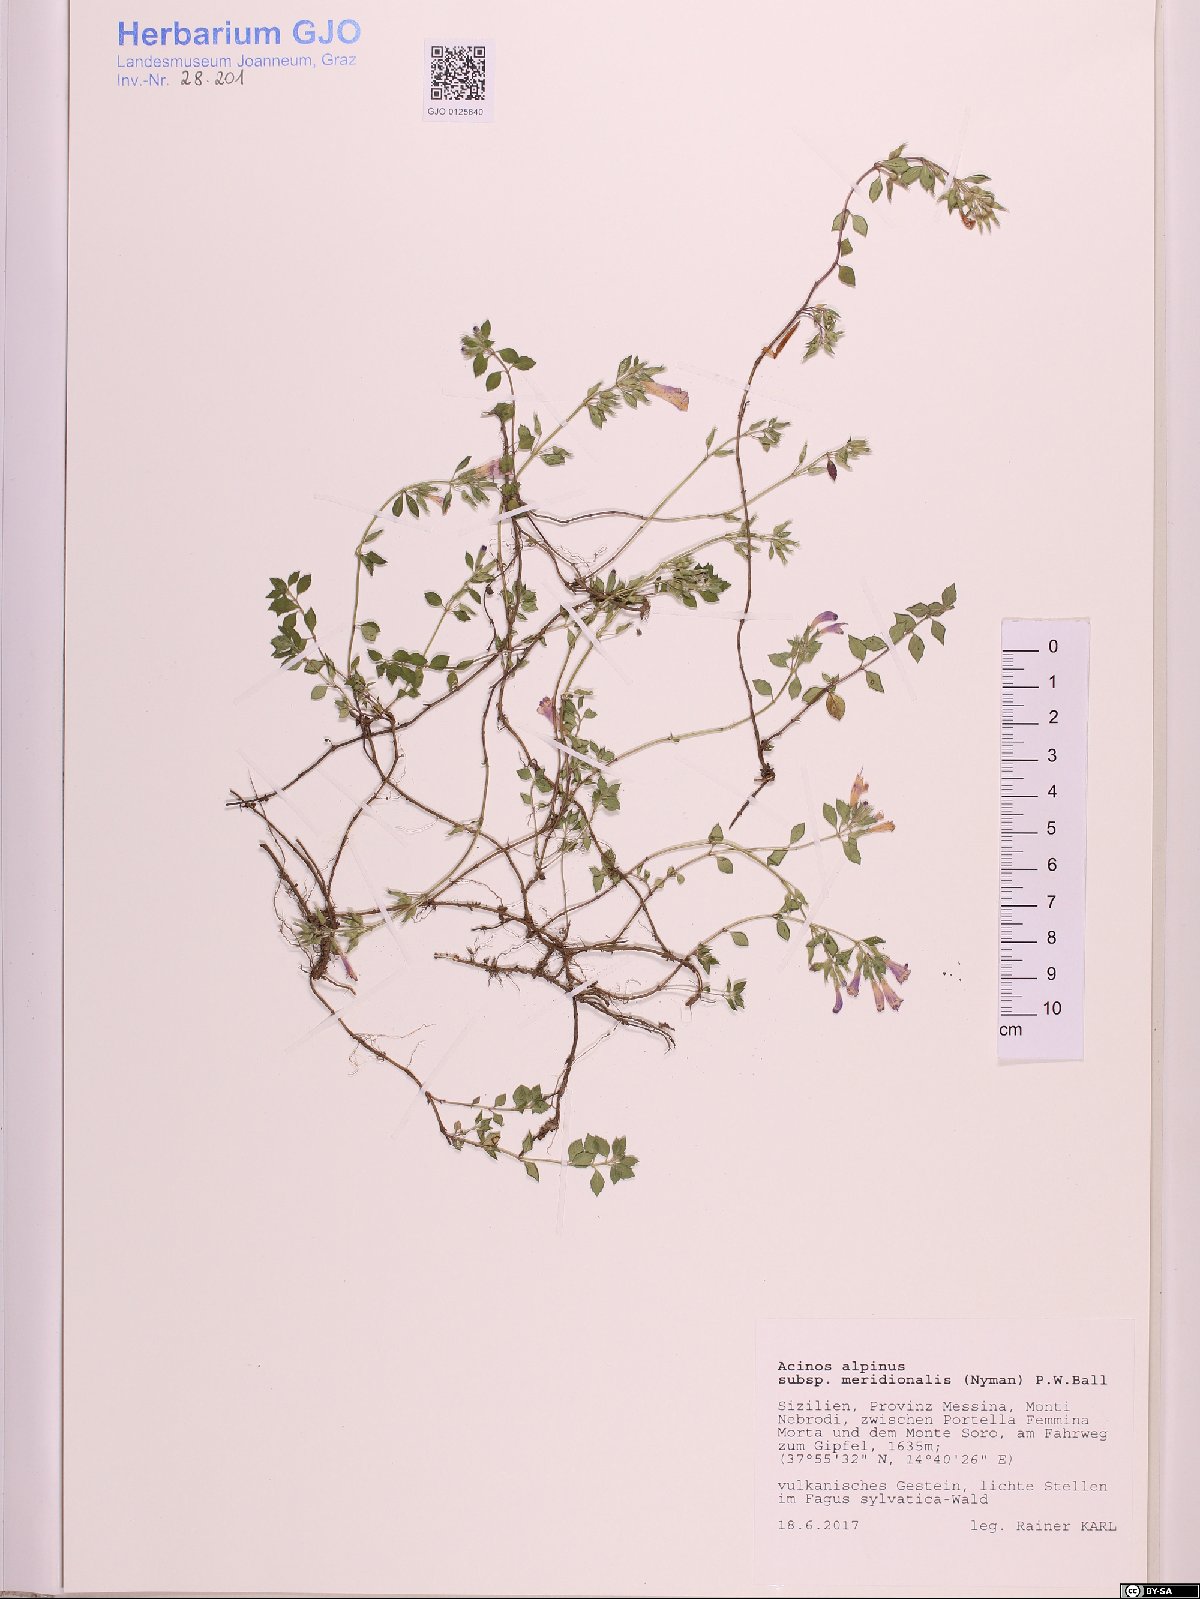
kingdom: Plantae
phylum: Tracheophyta
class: Magnoliopsida
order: Lamiales
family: Lamiaceae
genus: Clinopodium
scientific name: Clinopodium alpinum
